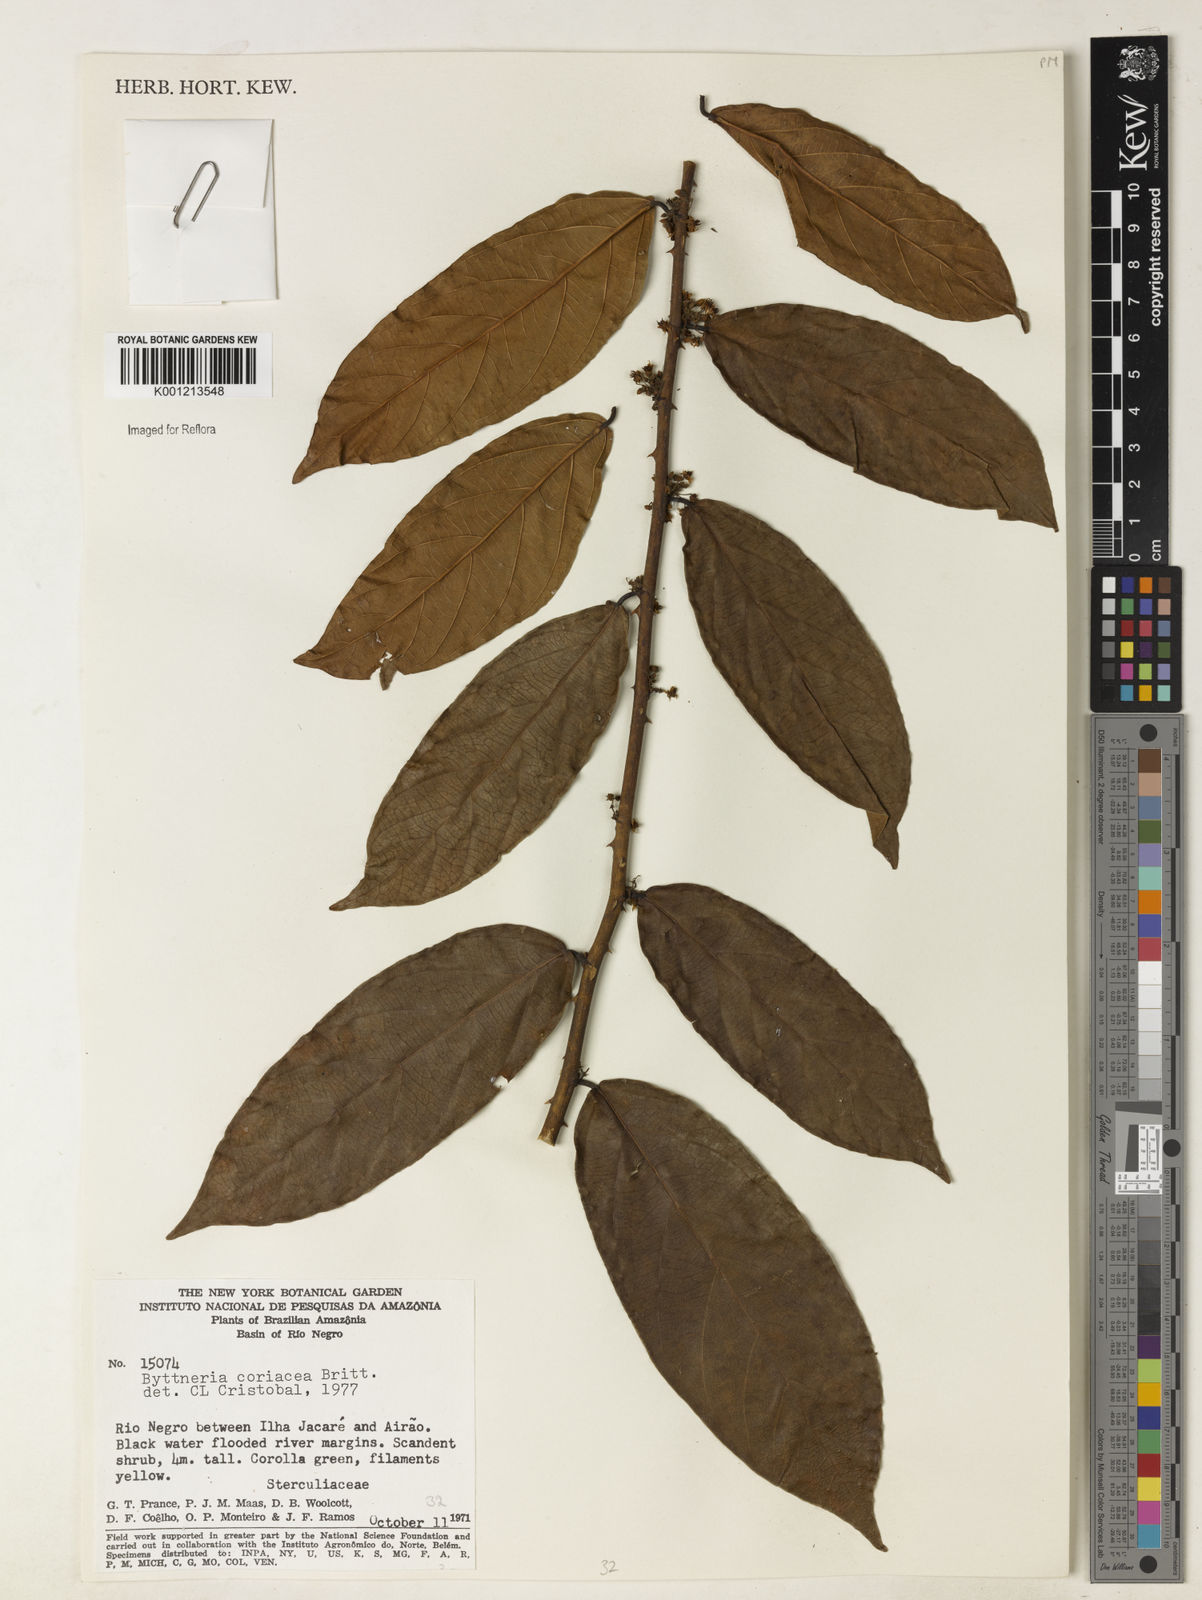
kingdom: Plantae
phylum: Tracheophyta
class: Magnoliopsida
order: Malvales
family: Malvaceae
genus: Byttneria
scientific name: Byttneria coriacea
